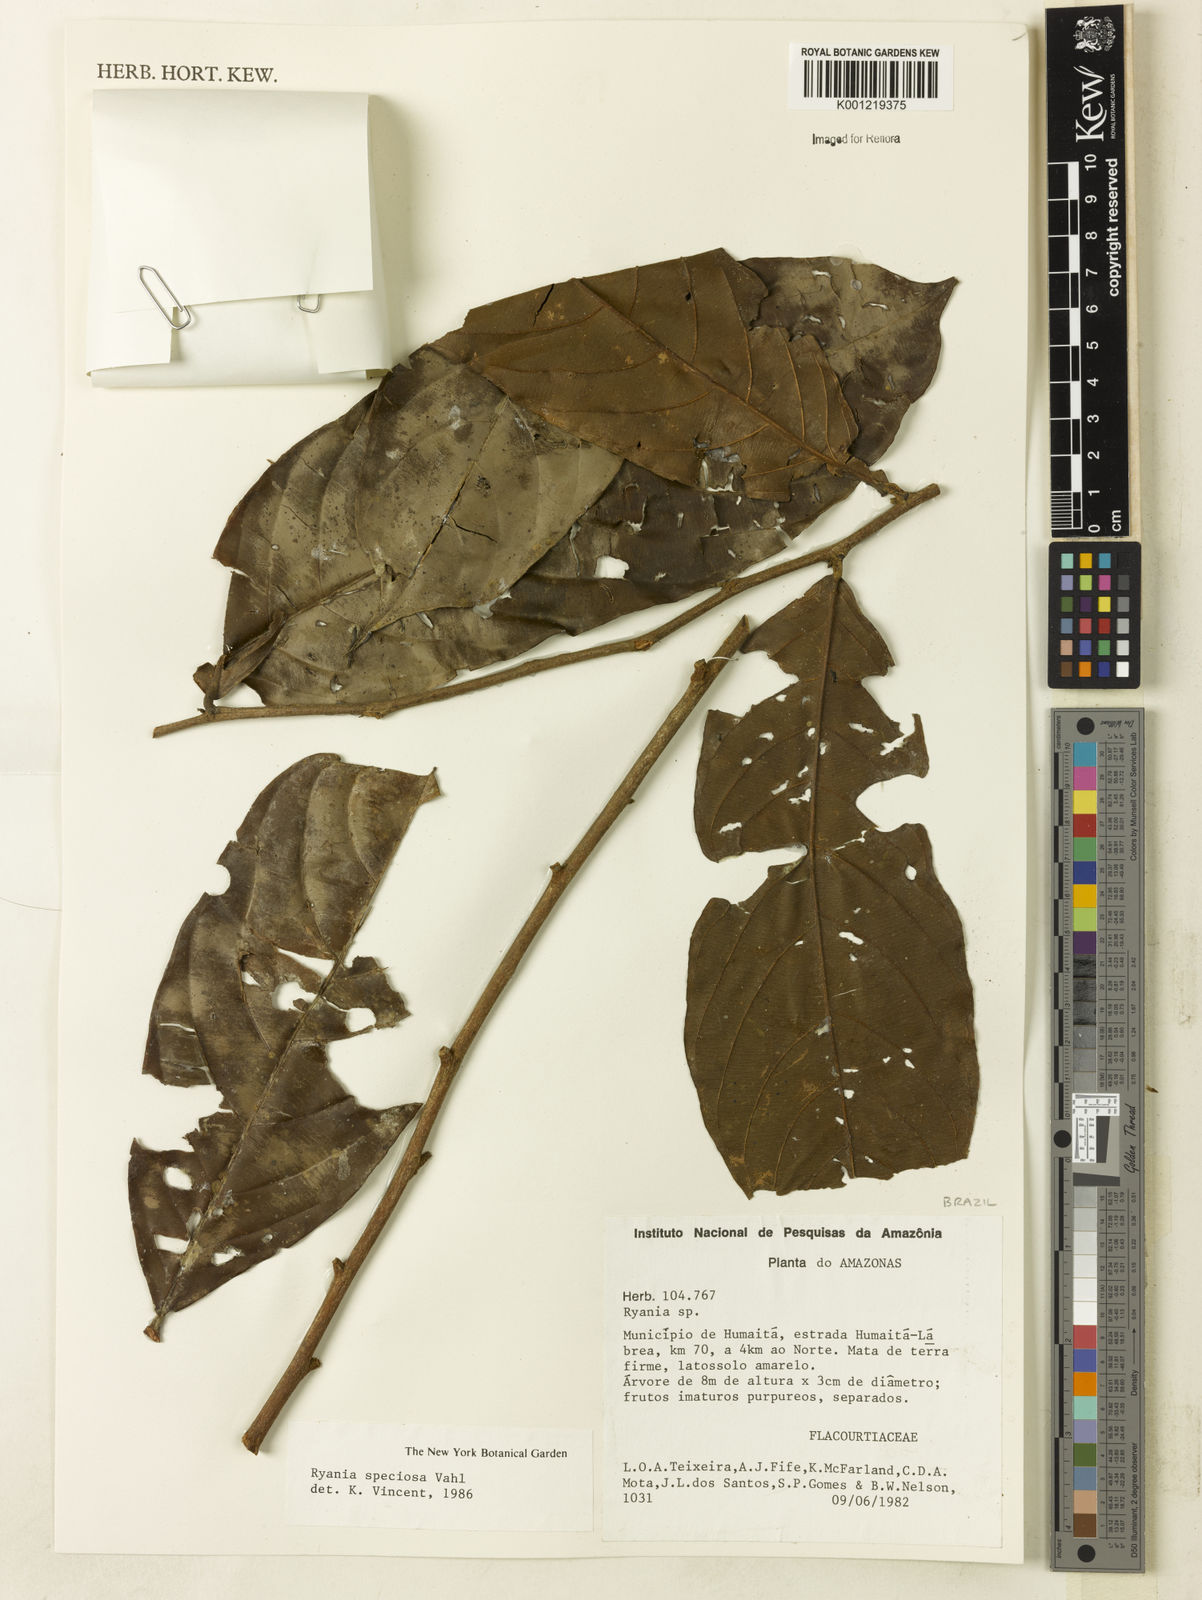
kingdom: Plantae
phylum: Tracheophyta
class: Magnoliopsida
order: Malpighiales
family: Salicaceae
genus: Ryania
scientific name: Ryania speciosa
